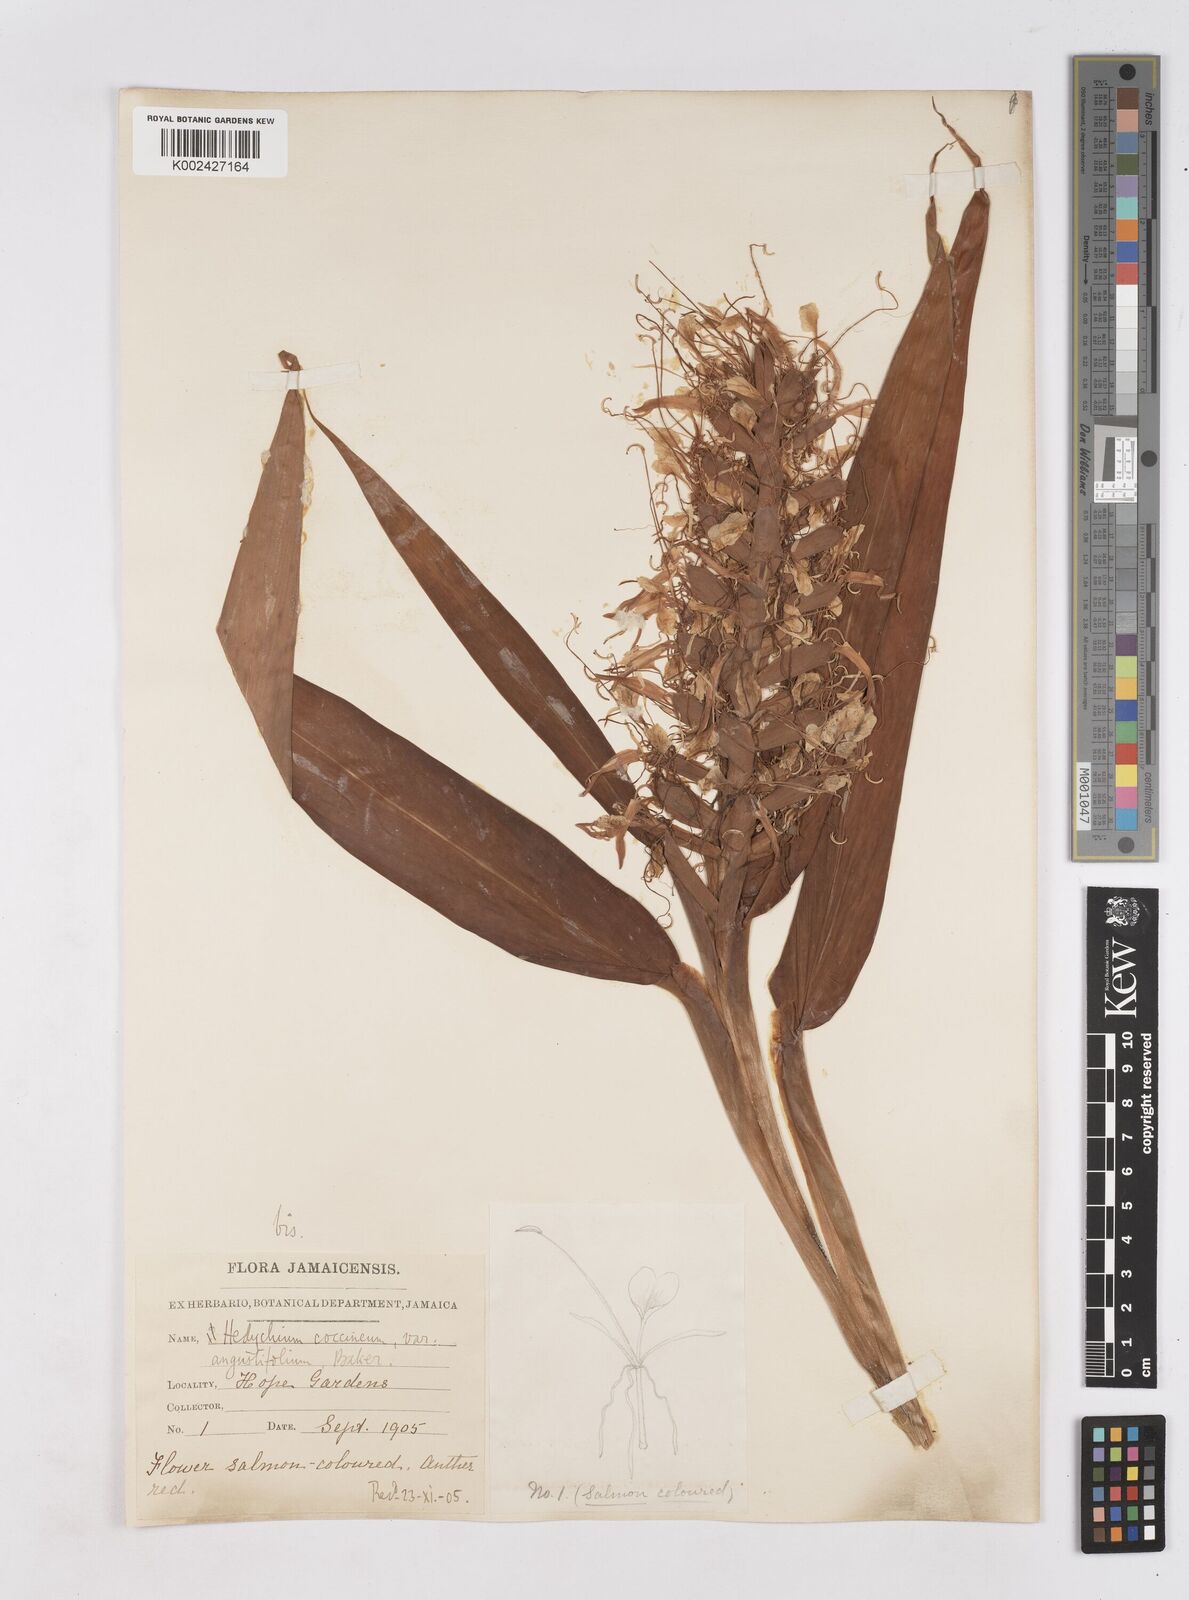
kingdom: Plantae
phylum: Tracheophyta
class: Liliopsida
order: Zingiberales
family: Zingiberaceae
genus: Hedychium
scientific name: Hedychium coccineum
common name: Red ginger-lily
